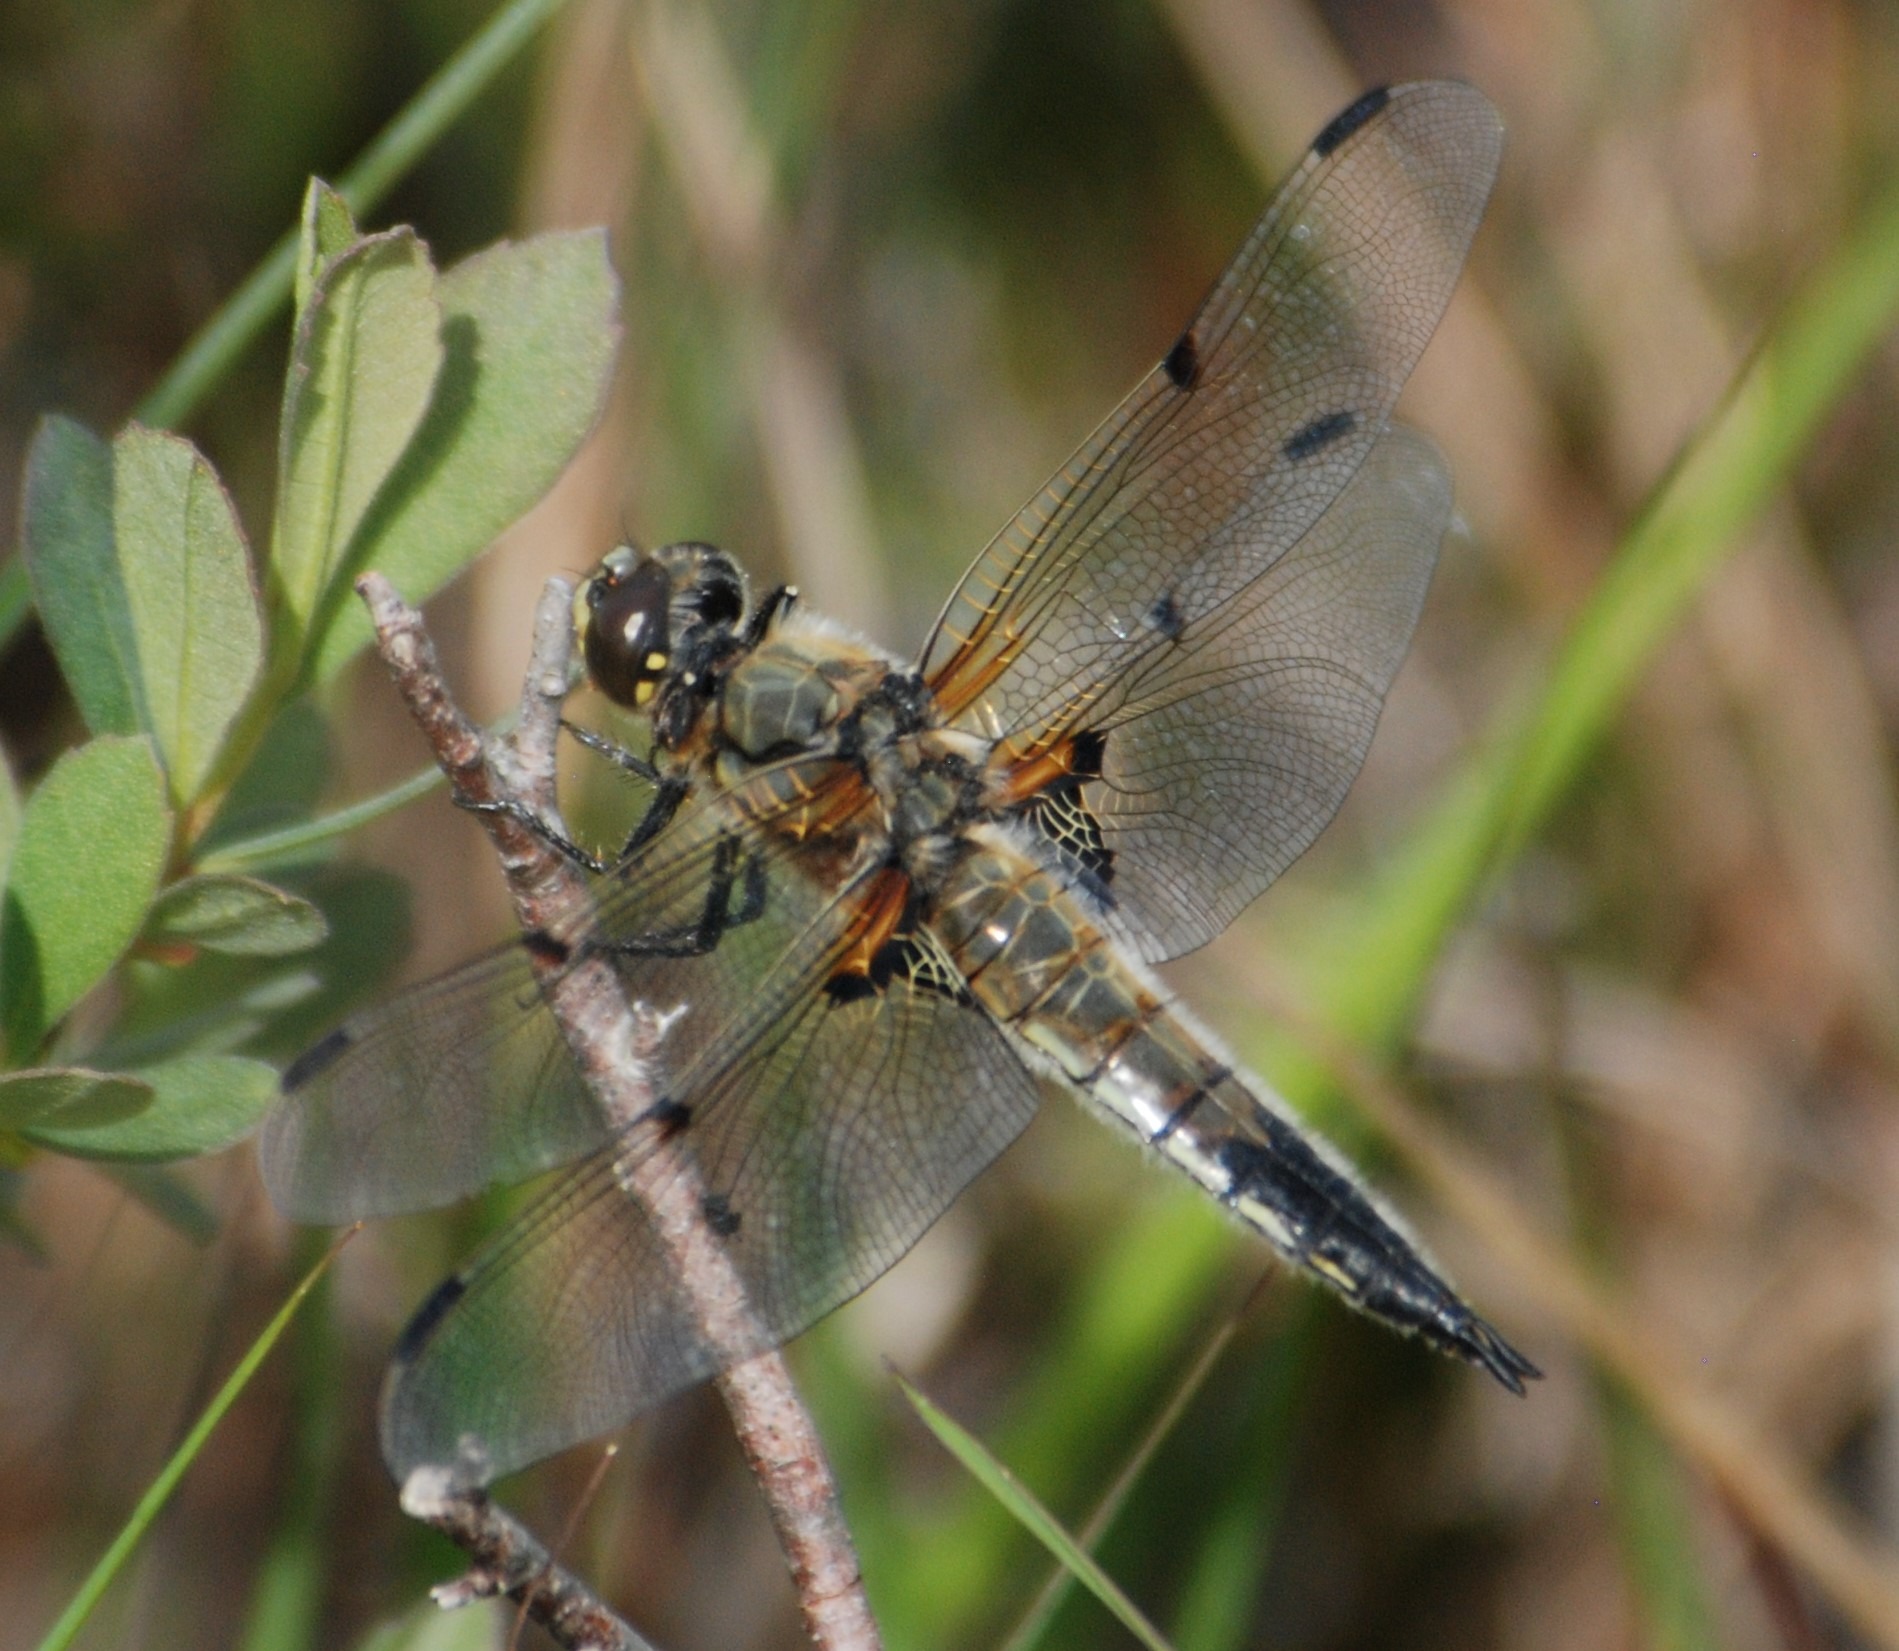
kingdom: Animalia
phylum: Arthropoda
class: Insecta
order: Odonata
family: Libellulidae
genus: Libellula
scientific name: Libellula quadrimaculata
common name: Fireplettet libel
